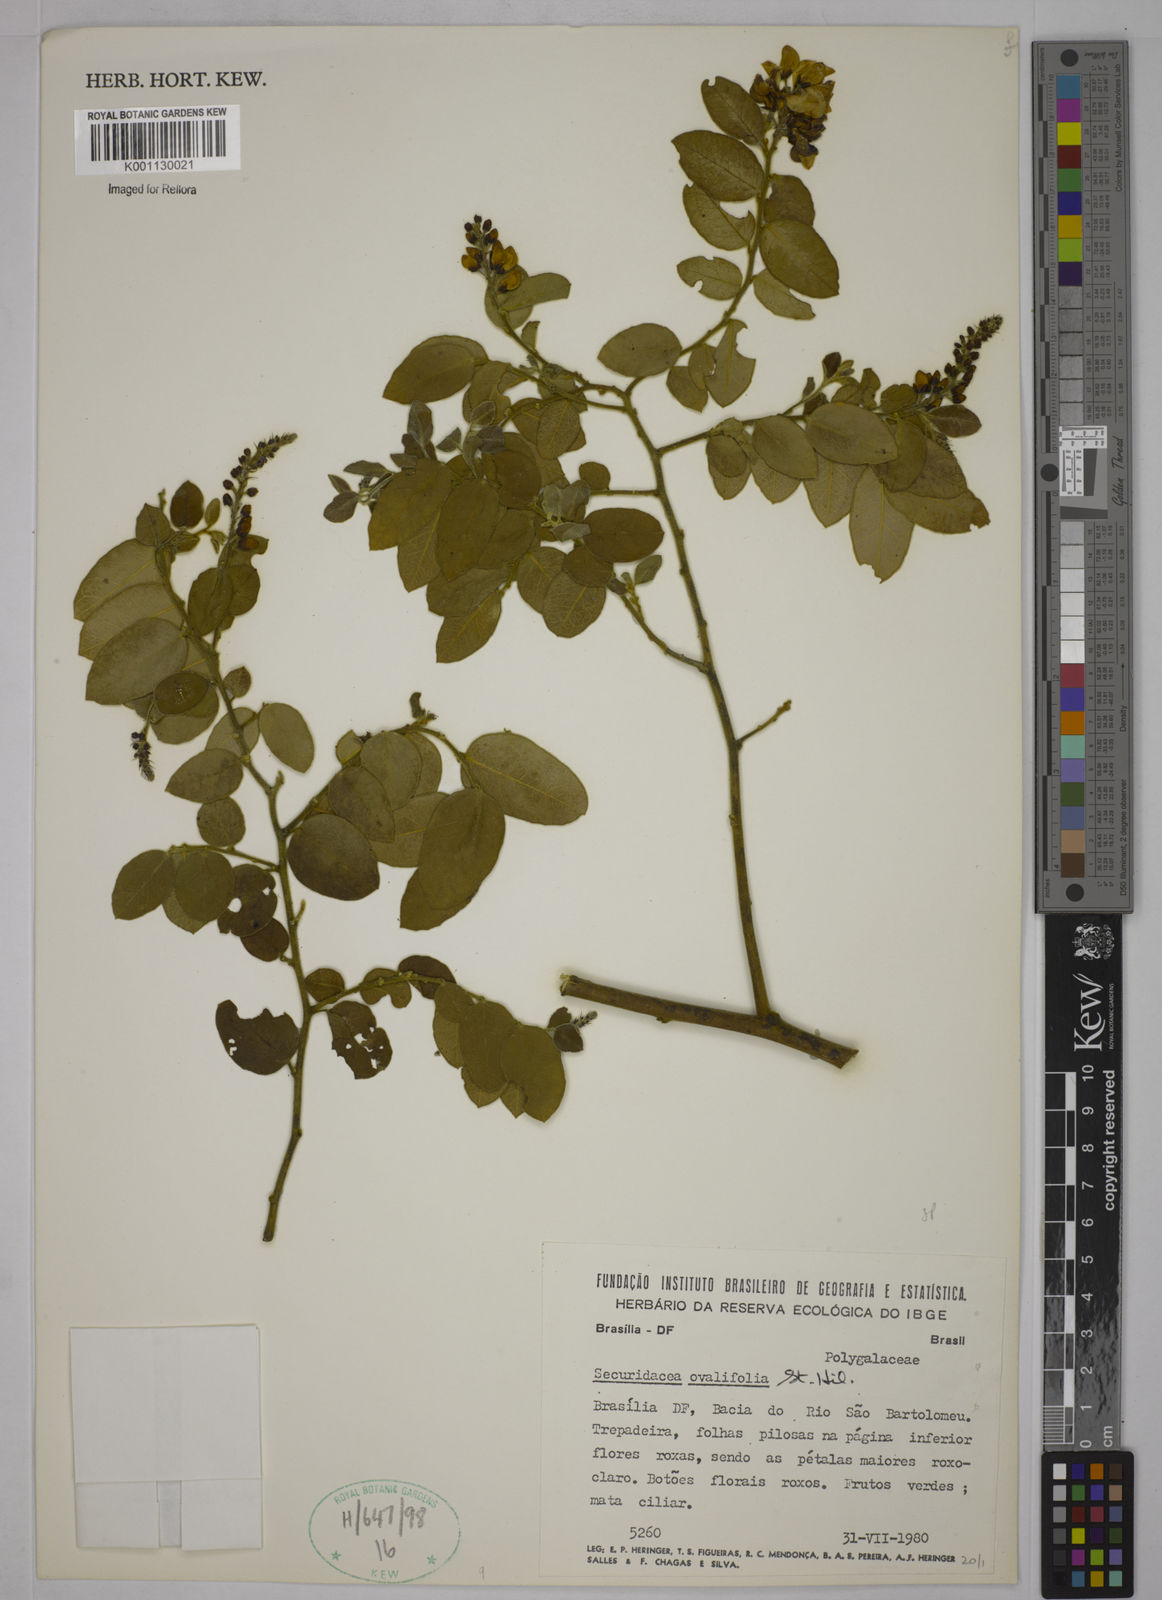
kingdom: Plantae
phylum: Tracheophyta
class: Magnoliopsida
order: Fabales
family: Polygalaceae
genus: Securidaca
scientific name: Securidaca ovalifolia
